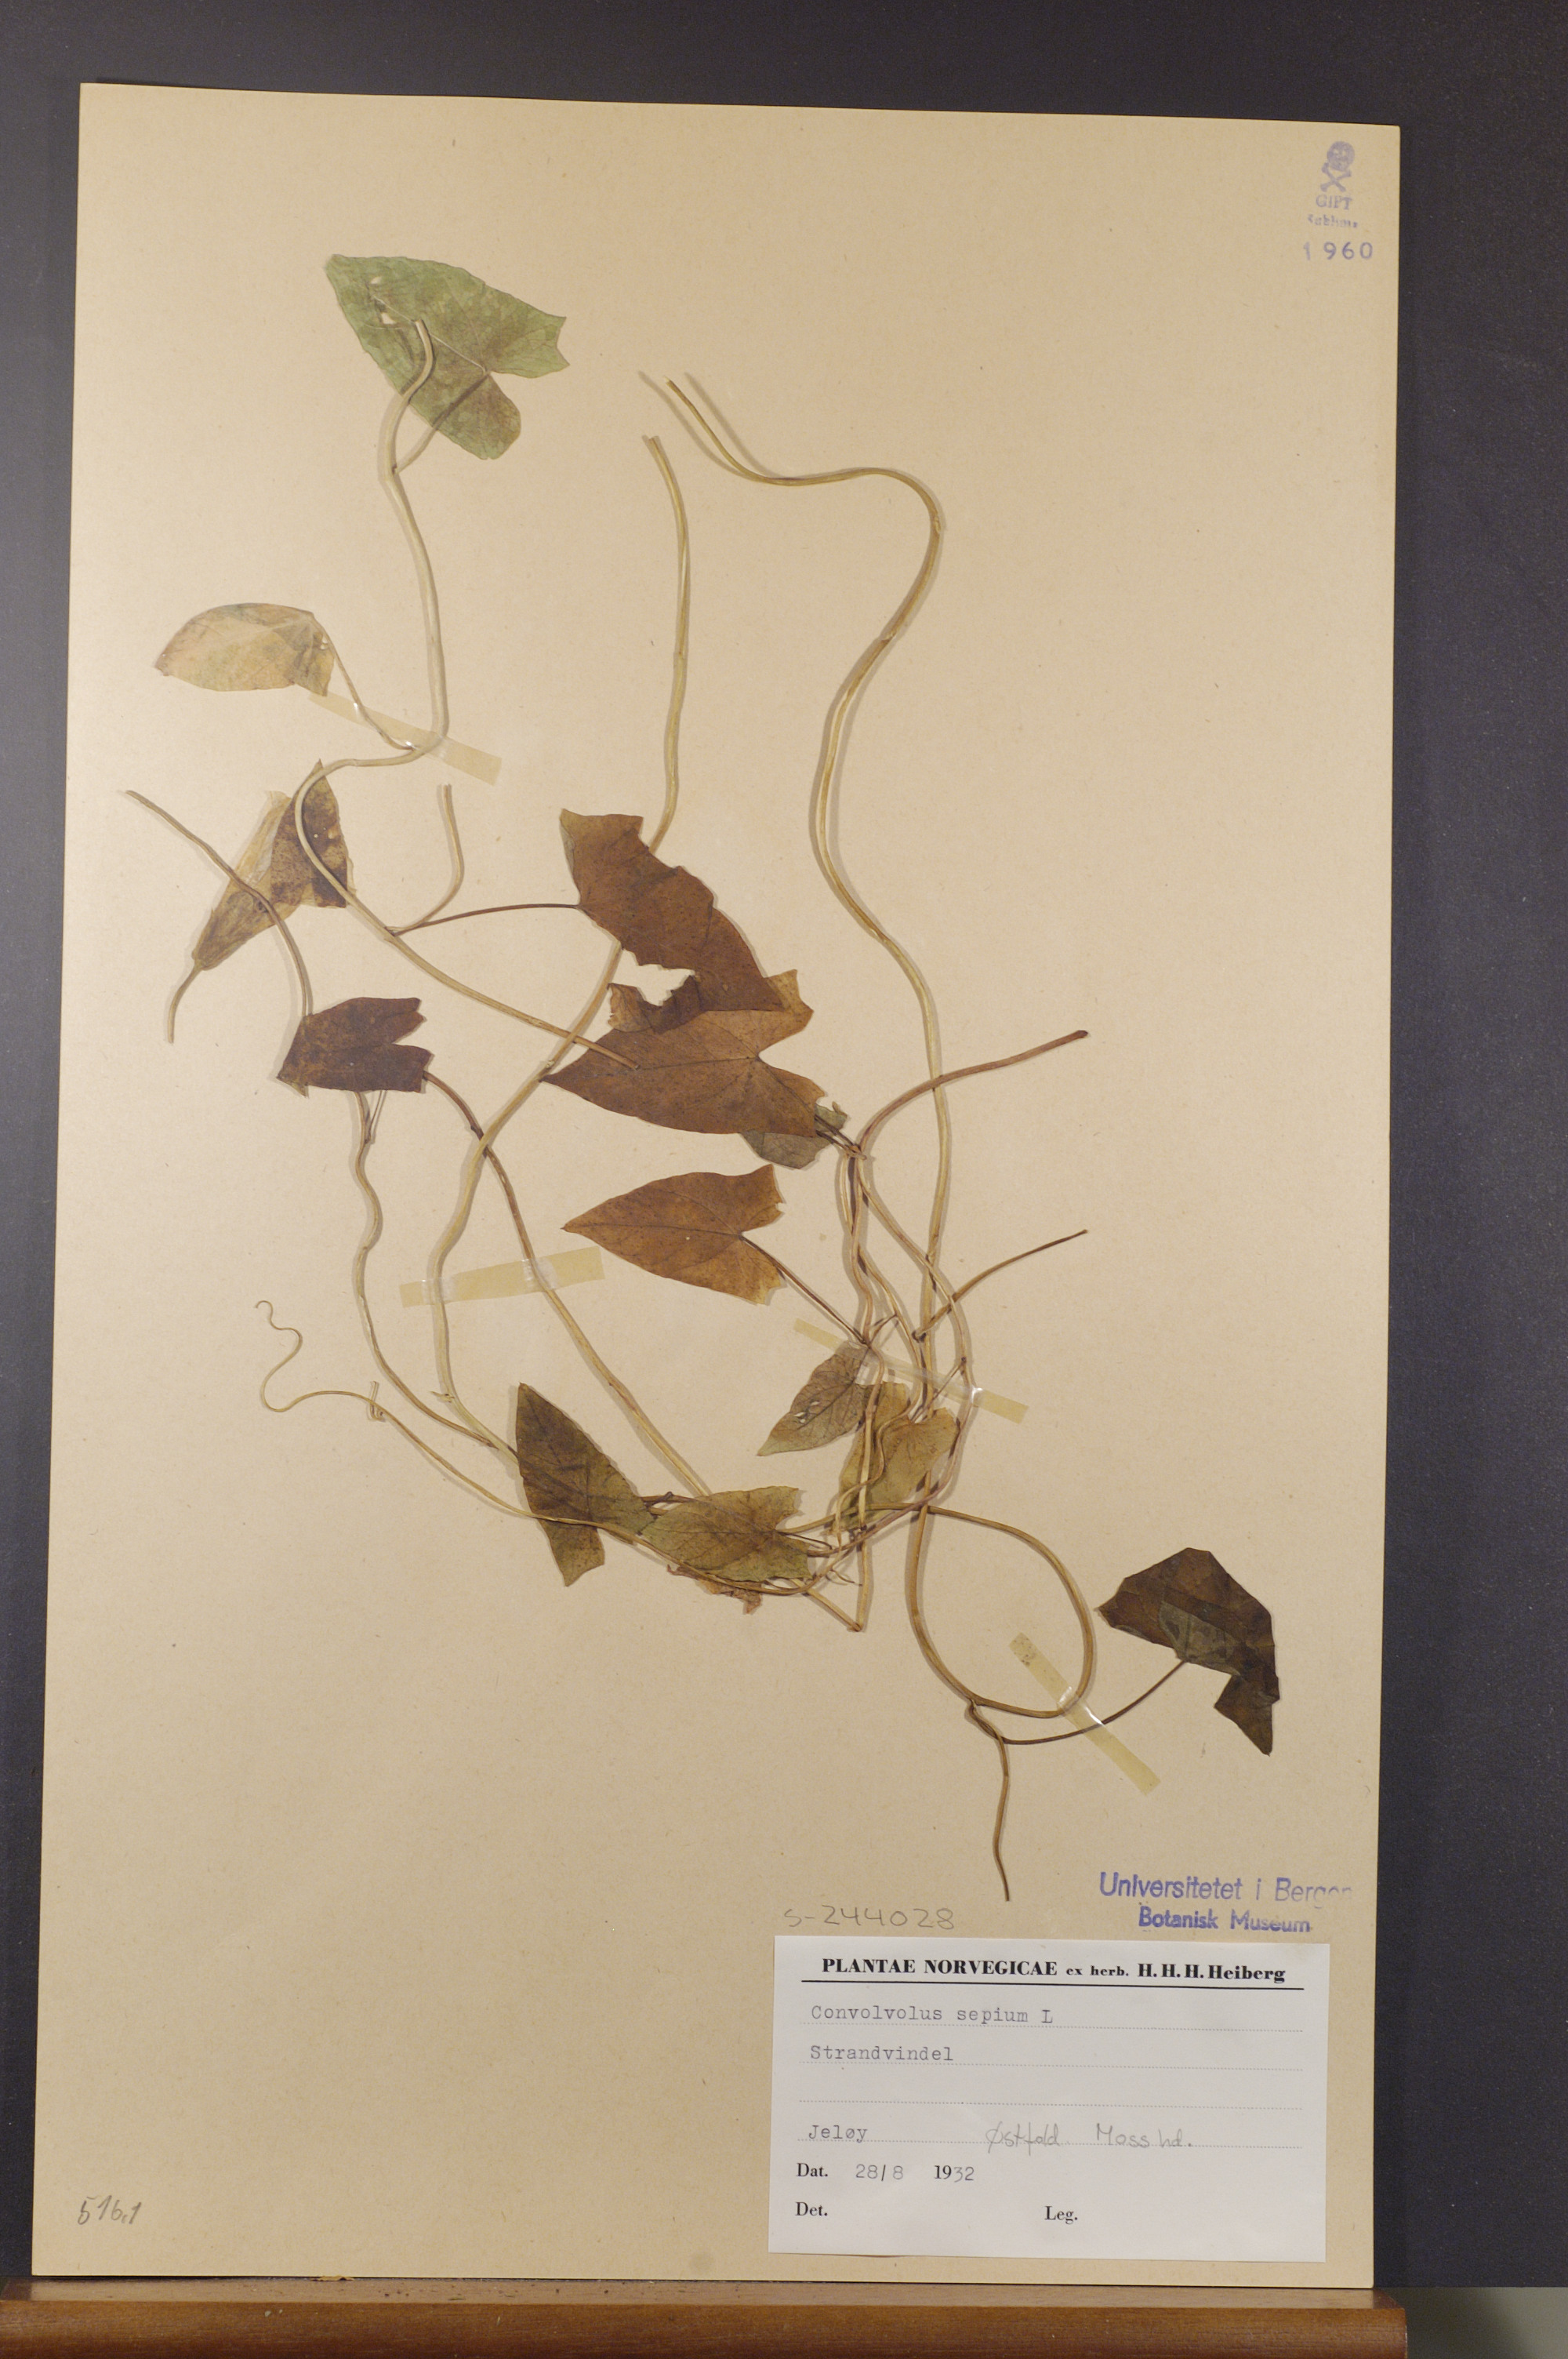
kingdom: Plantae
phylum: Tracheophyta
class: Magnoliopsida
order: Solanales
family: Convolvulaceae
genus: Calystegia
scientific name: Calystegia sepium
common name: Hedge bindweed
